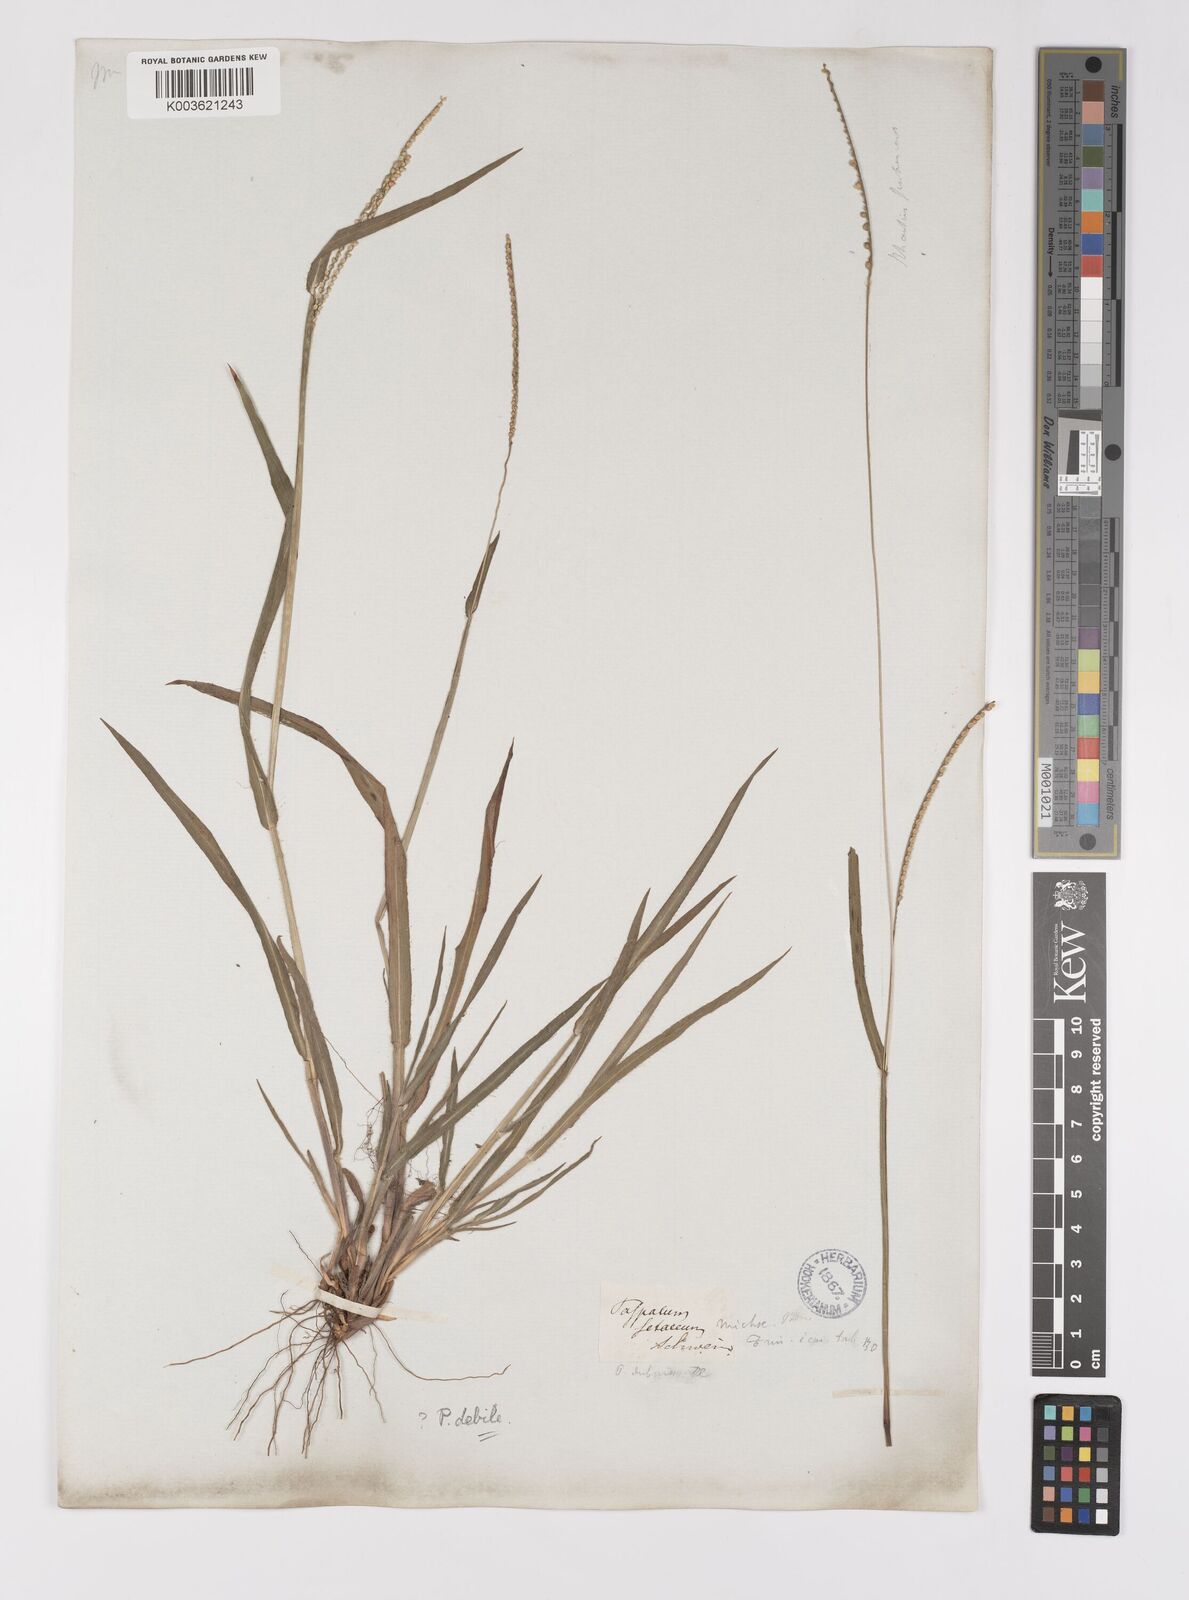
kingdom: Plantae
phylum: Tracheophyta
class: Liliopsida
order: Poales
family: Poaceae
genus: Paspalum
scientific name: Paspalum setaceum
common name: Slender paspalum
